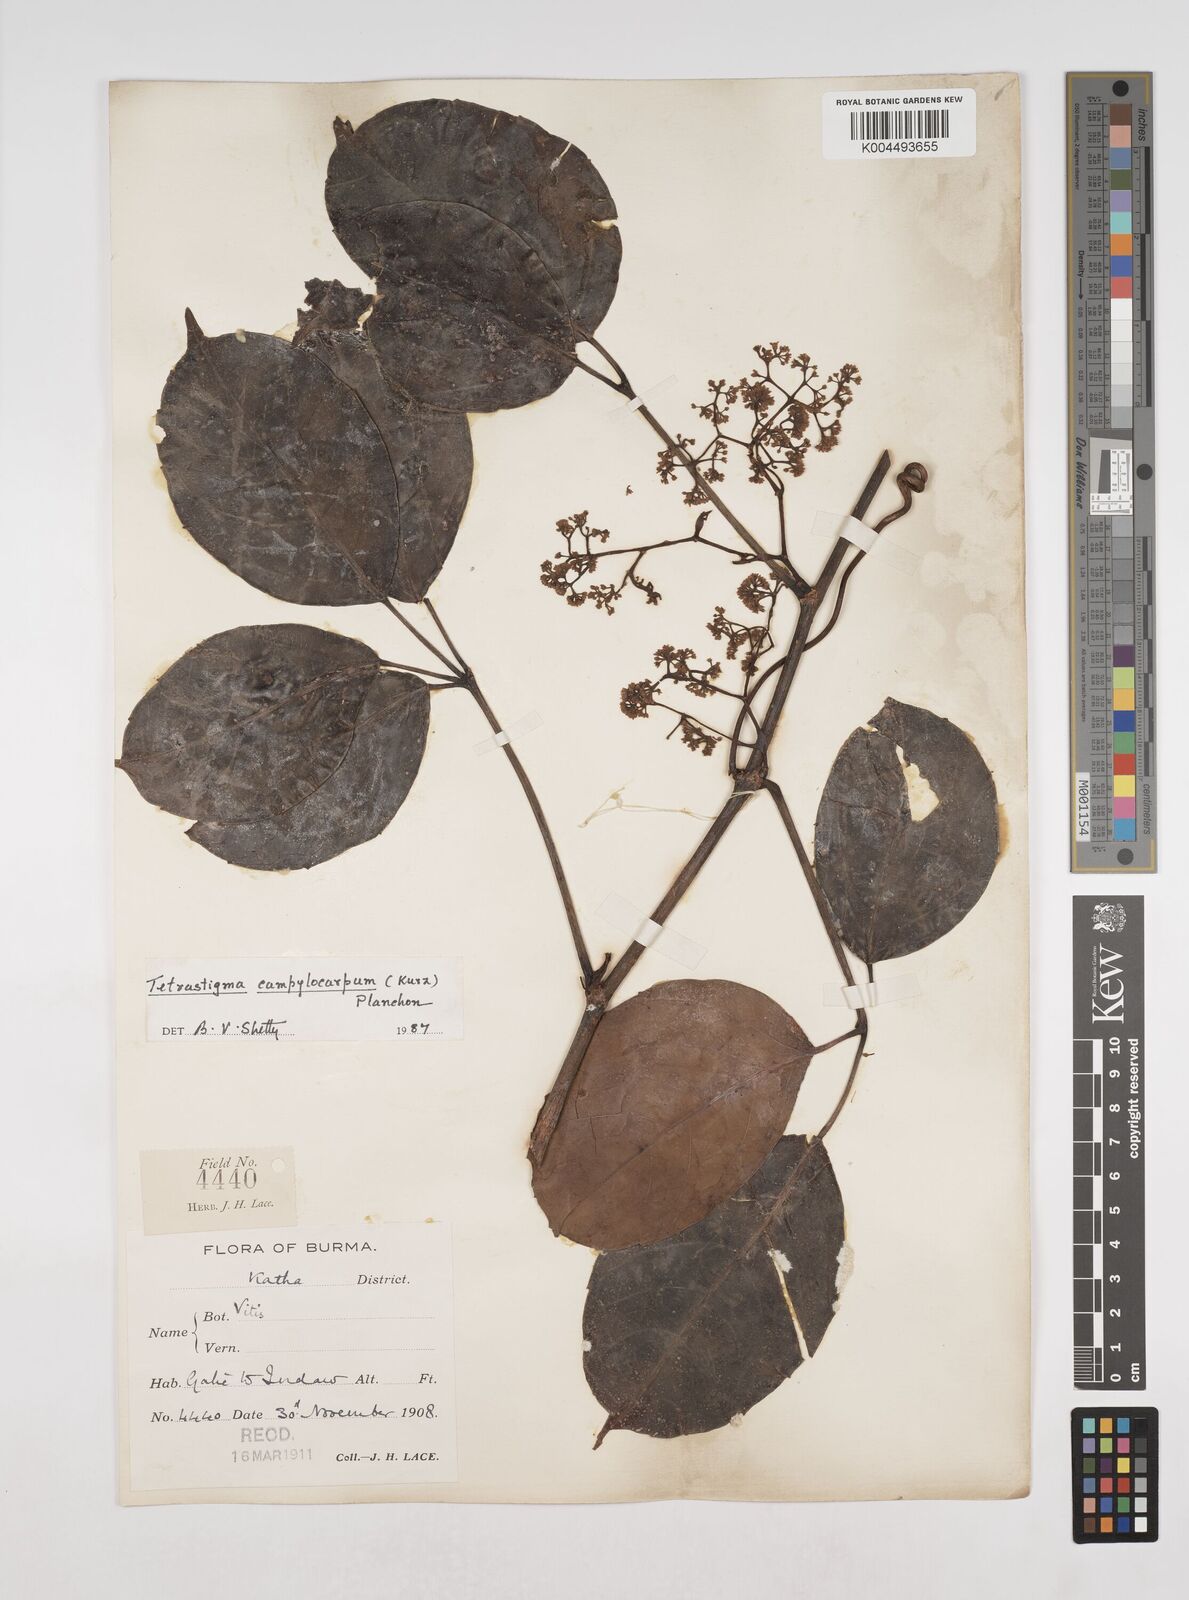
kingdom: Plantae
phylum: Tracheophyta
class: Magnoliopsida
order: Vitales
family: Vitaceae
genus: Tetrastigma
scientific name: Tetrastigma campylocarpum
